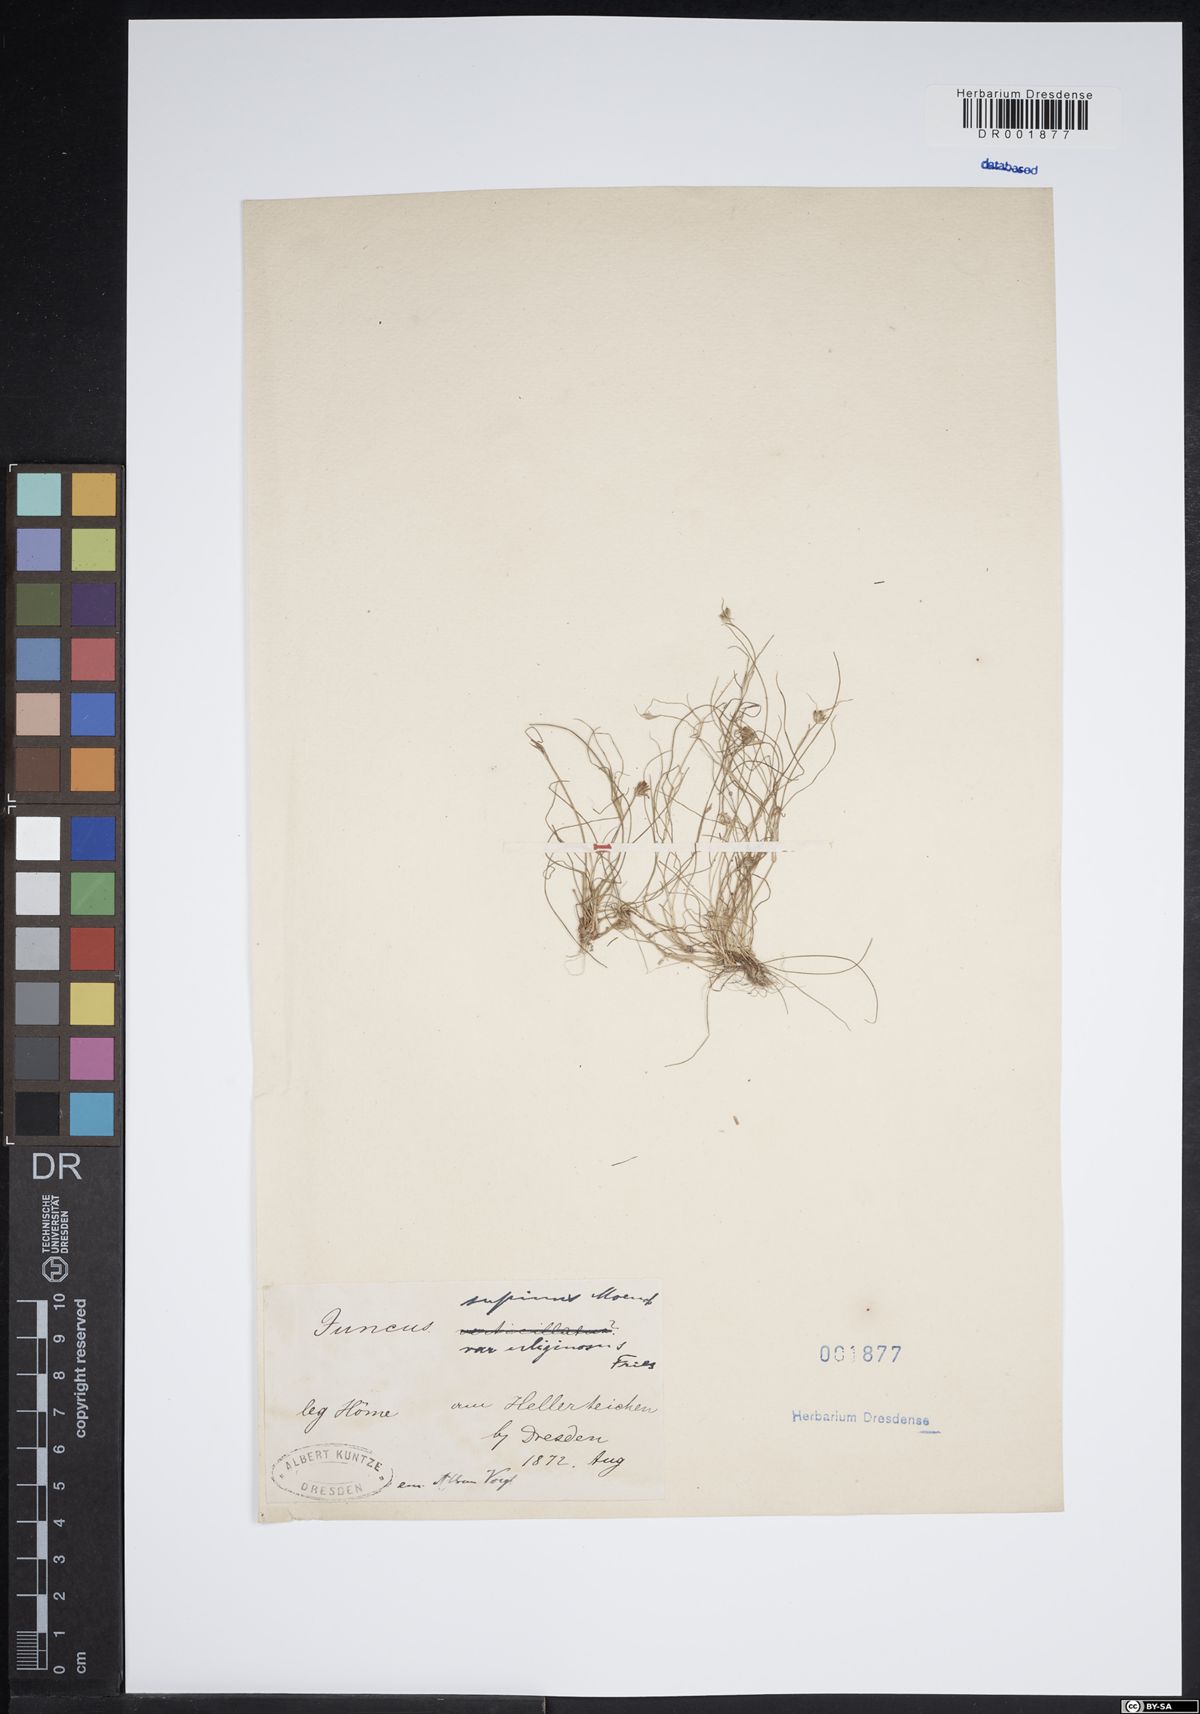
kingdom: Plantae
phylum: Tracheophyta
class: Liliopsida
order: Poales
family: Juncaceae
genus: Juncus
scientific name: Juncus bulbosus
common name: Bulbous rush
